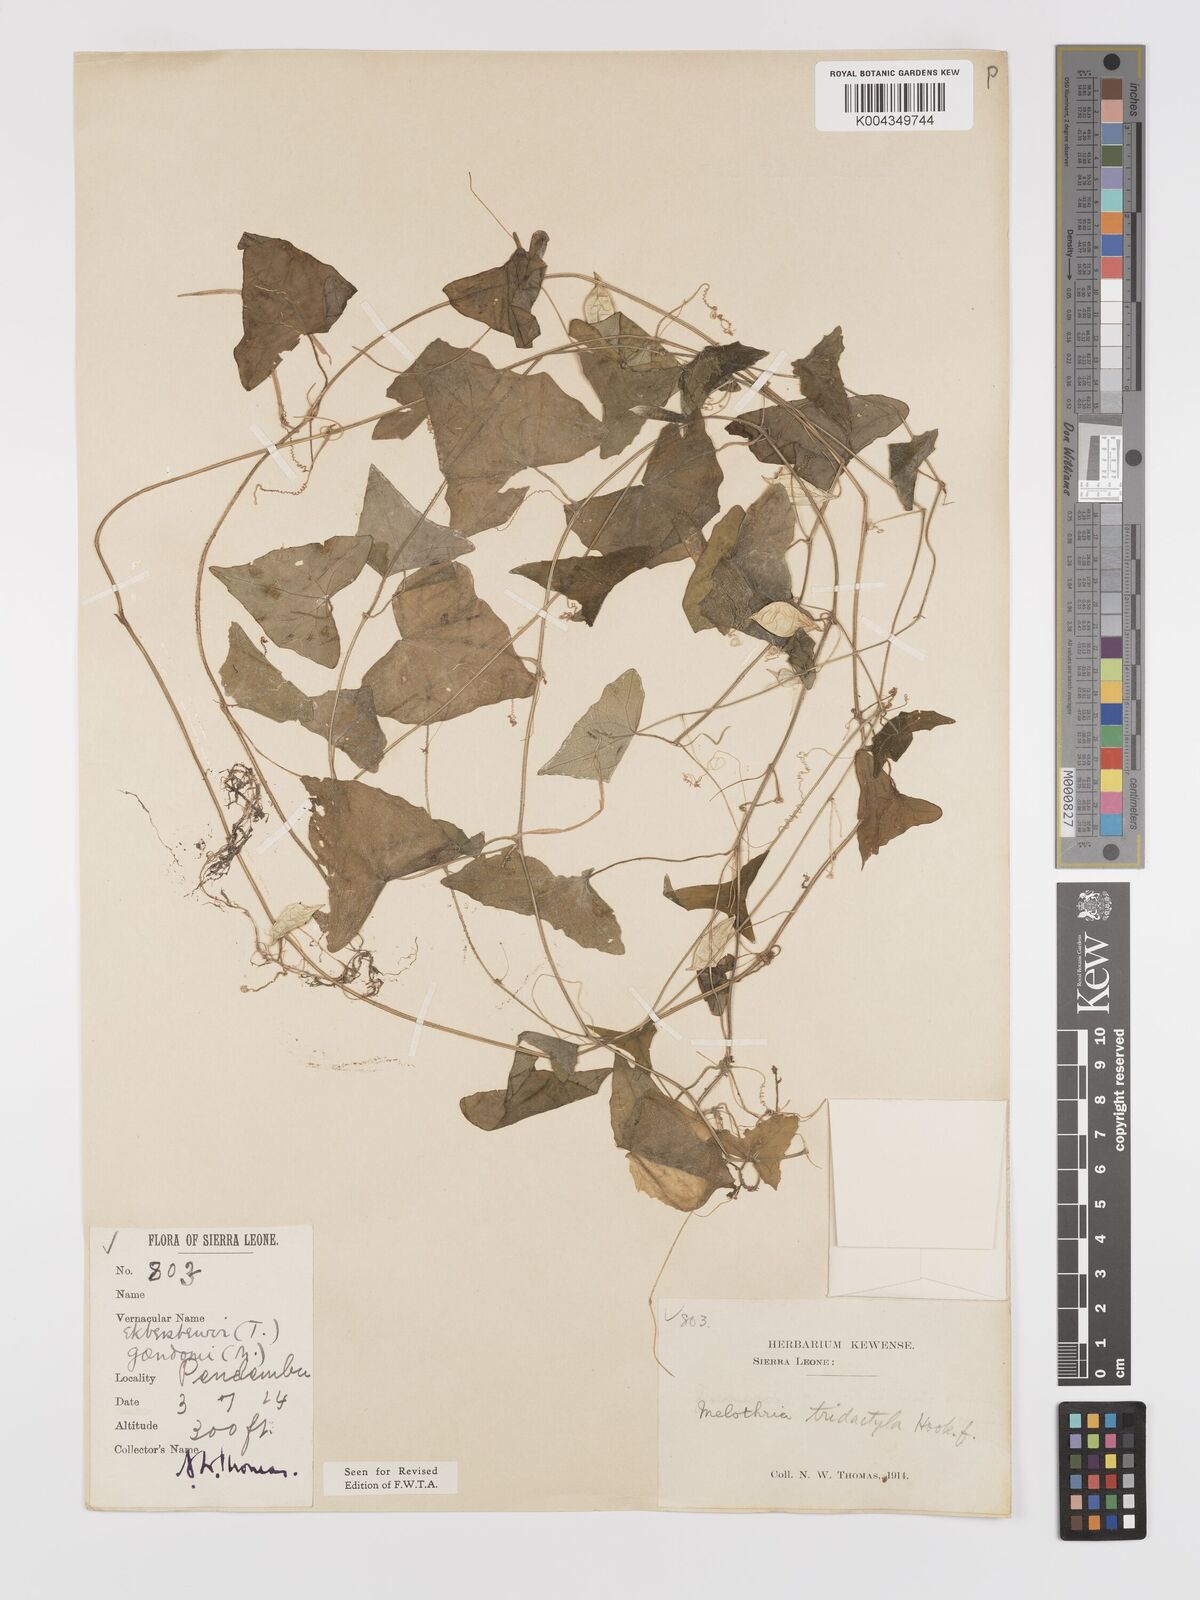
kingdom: Plantae
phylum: Tracheophyta
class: Magnoliopsida
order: Cucurbitales
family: Cucurbitaceae
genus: Zehneria
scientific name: Zehneria thwaitesii
